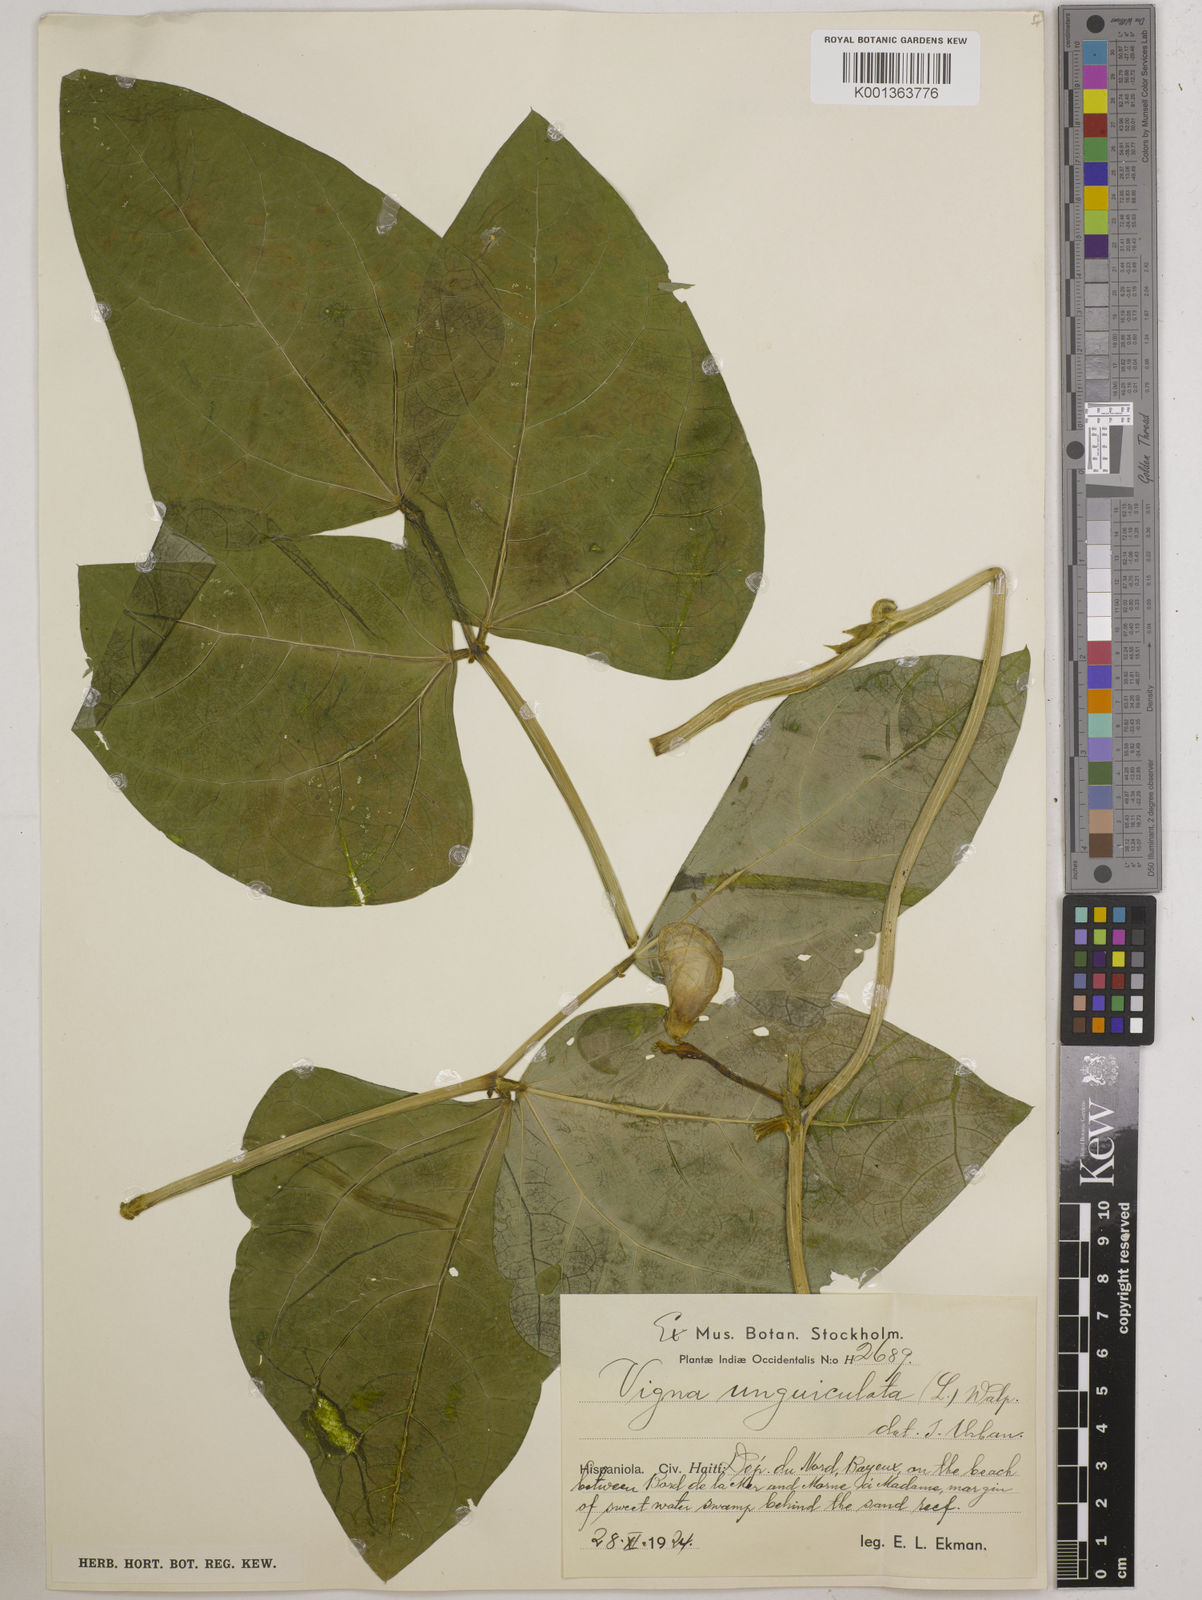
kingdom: Plantae
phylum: Tracheophyta
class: Magnoliopsida
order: Fabales
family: Fabaceae
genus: Vigna
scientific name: Vigna unguiculata
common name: Cowpea
